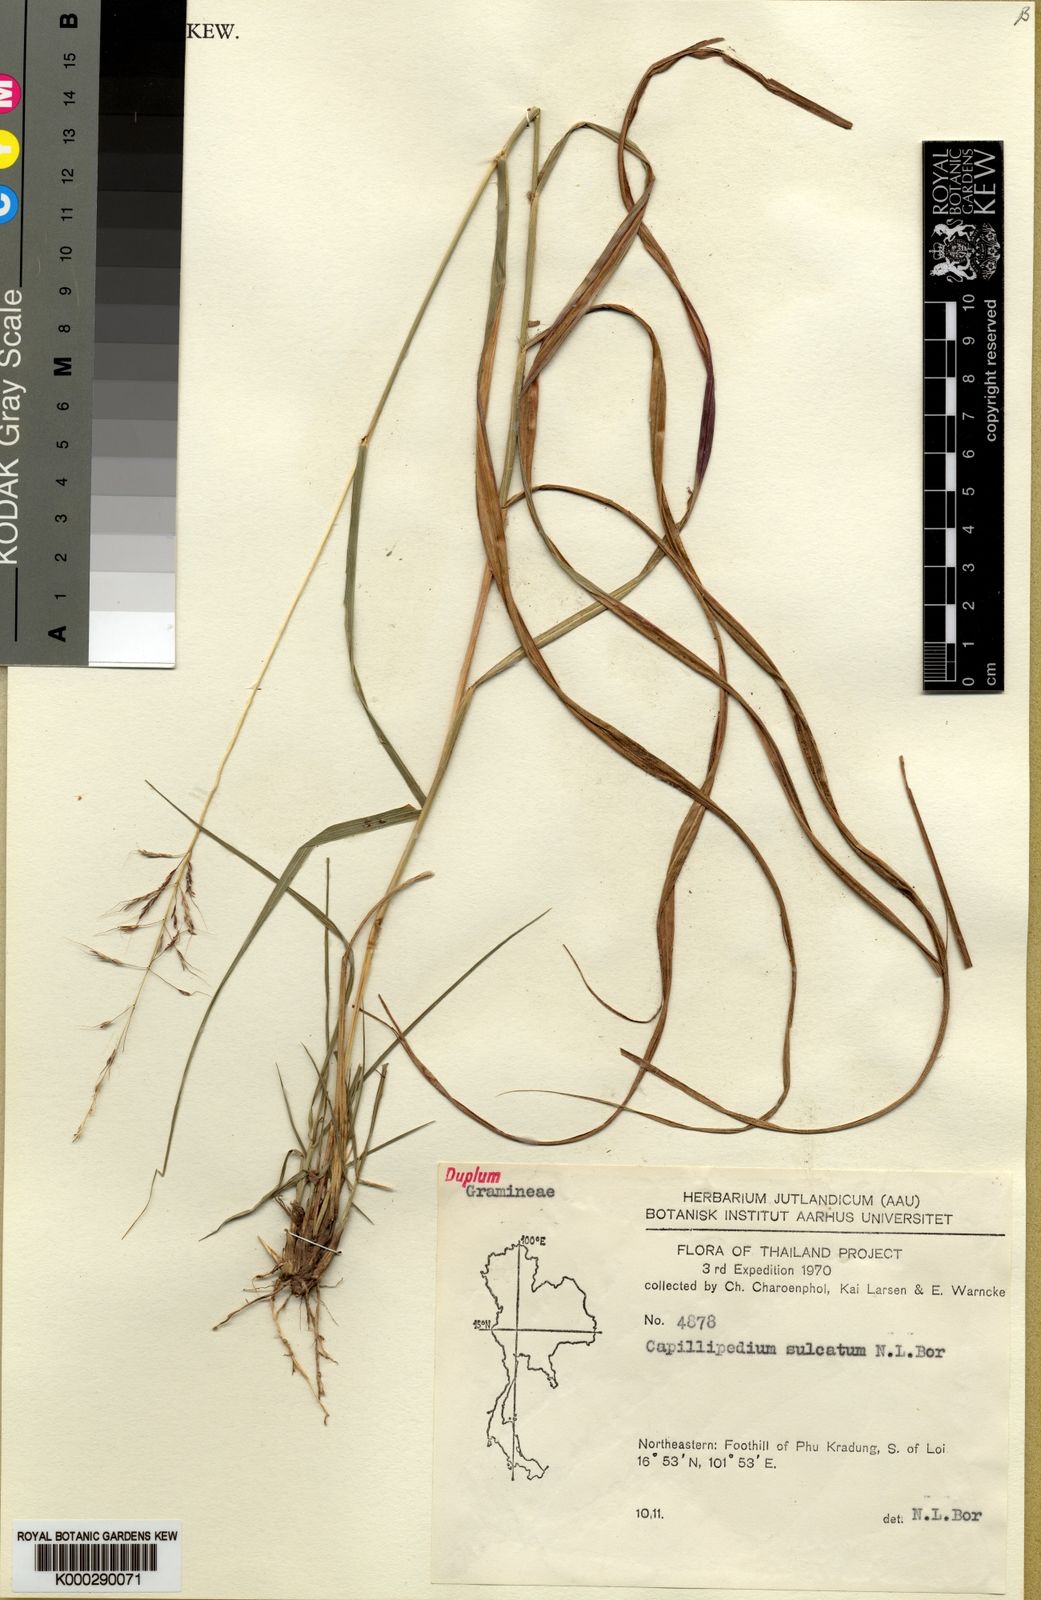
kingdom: Plantae
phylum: Tracheophyta
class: Liliopsida
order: Poales
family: Poaceae
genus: Capillipedium
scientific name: Capillipedium sulcatum
